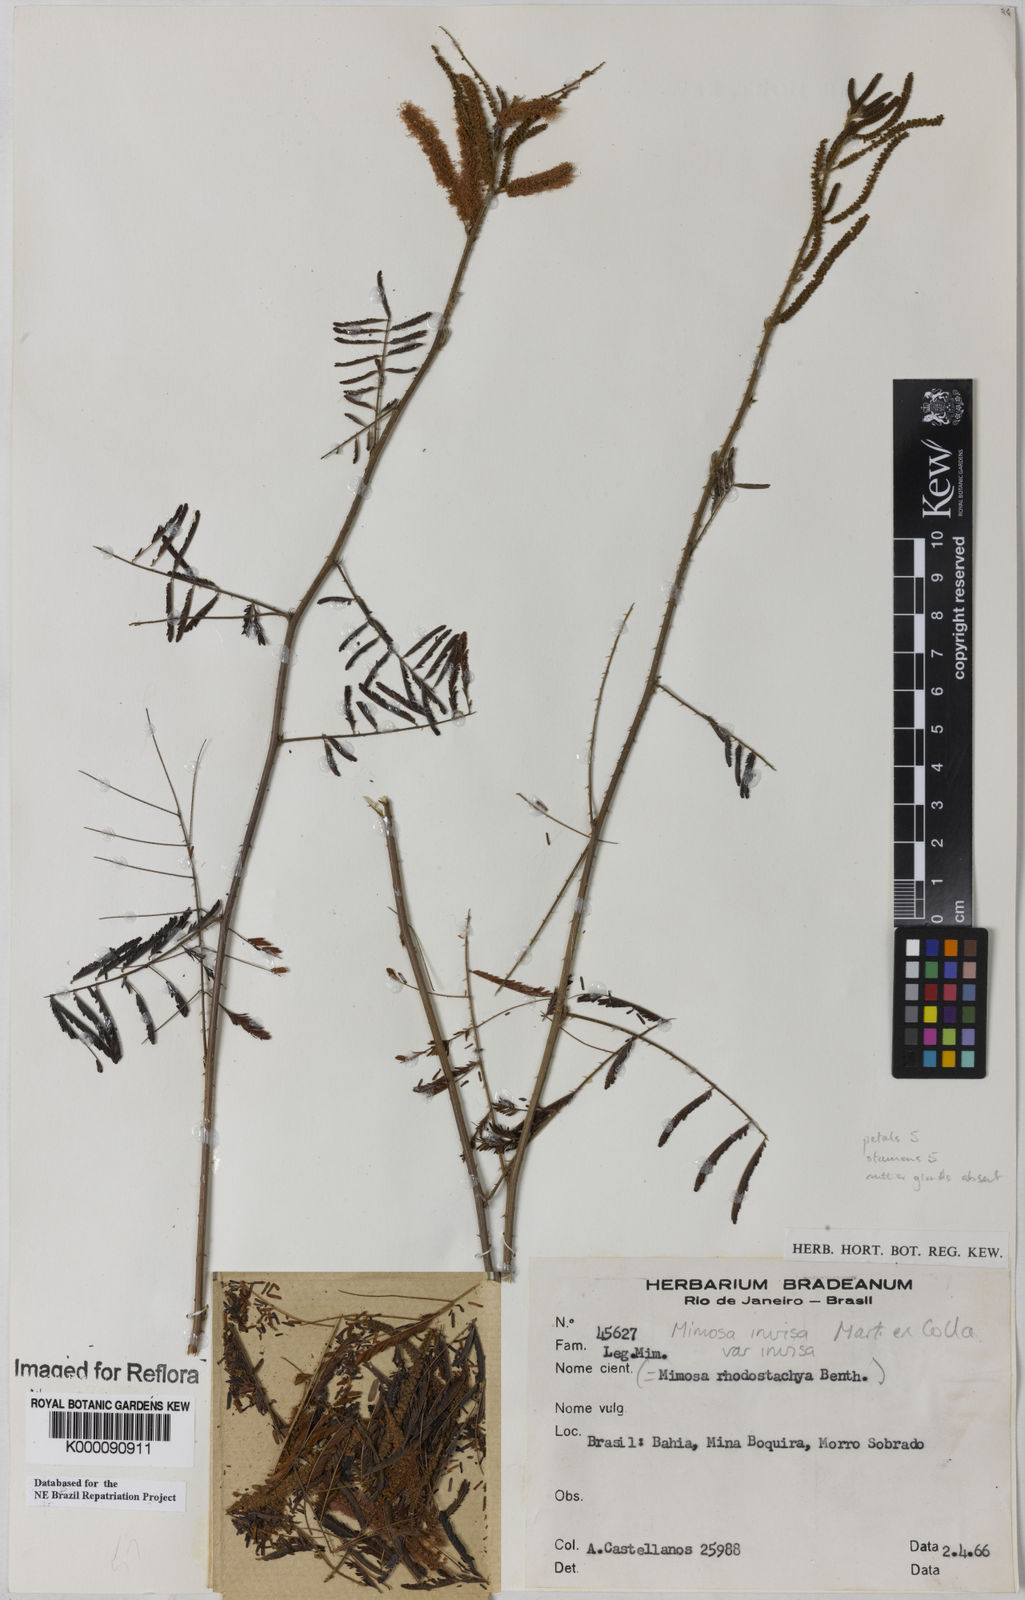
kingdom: Plantae
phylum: Tracheophyta
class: Magnoliopsida
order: Fabales
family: Fabaceae
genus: Mimosa
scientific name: Mimosa invisa
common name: Creeping sensitive-plant
